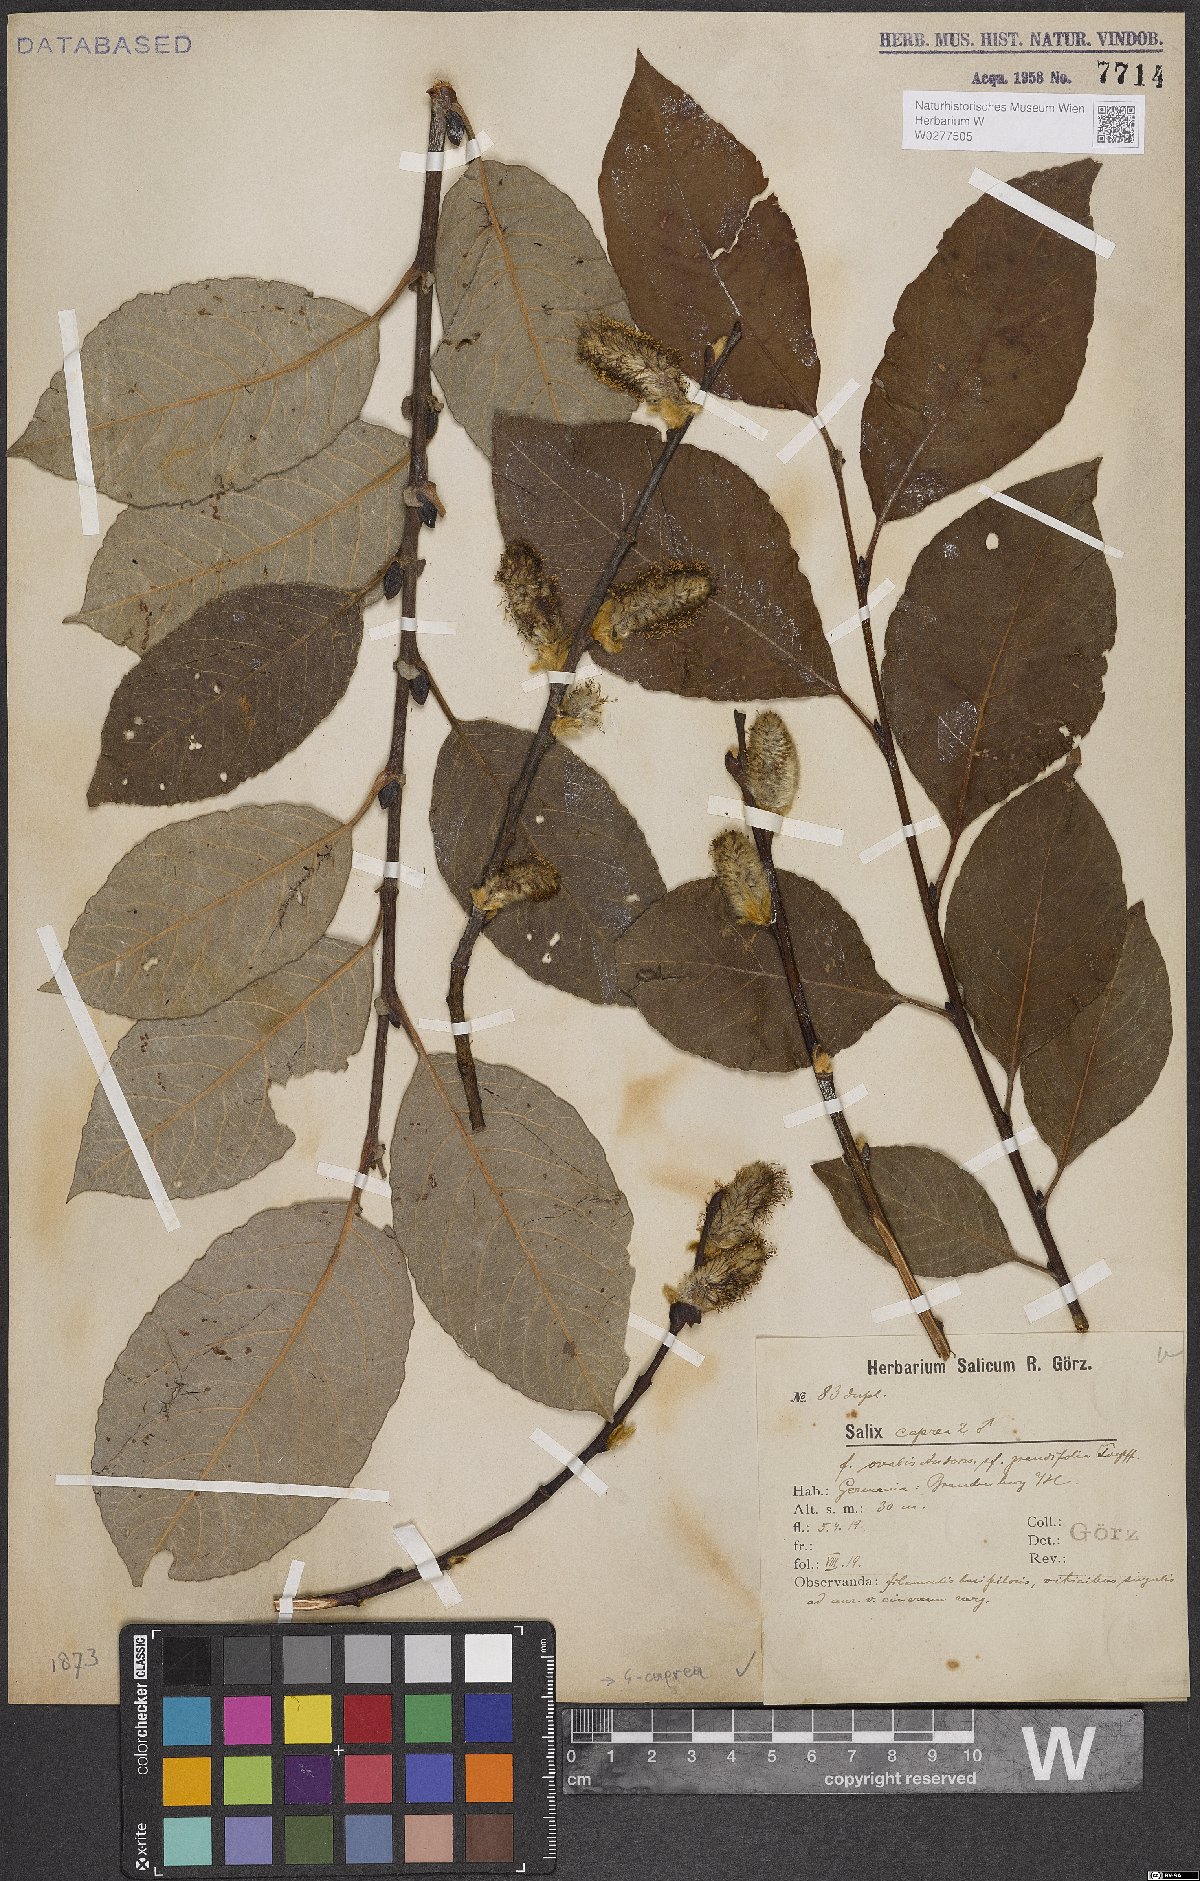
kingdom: Plantae
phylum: Tracheophyta
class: Magnoliopsida
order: Malpighiales
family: Salicaceae
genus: Salix
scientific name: Salix caprea
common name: Goat willow
